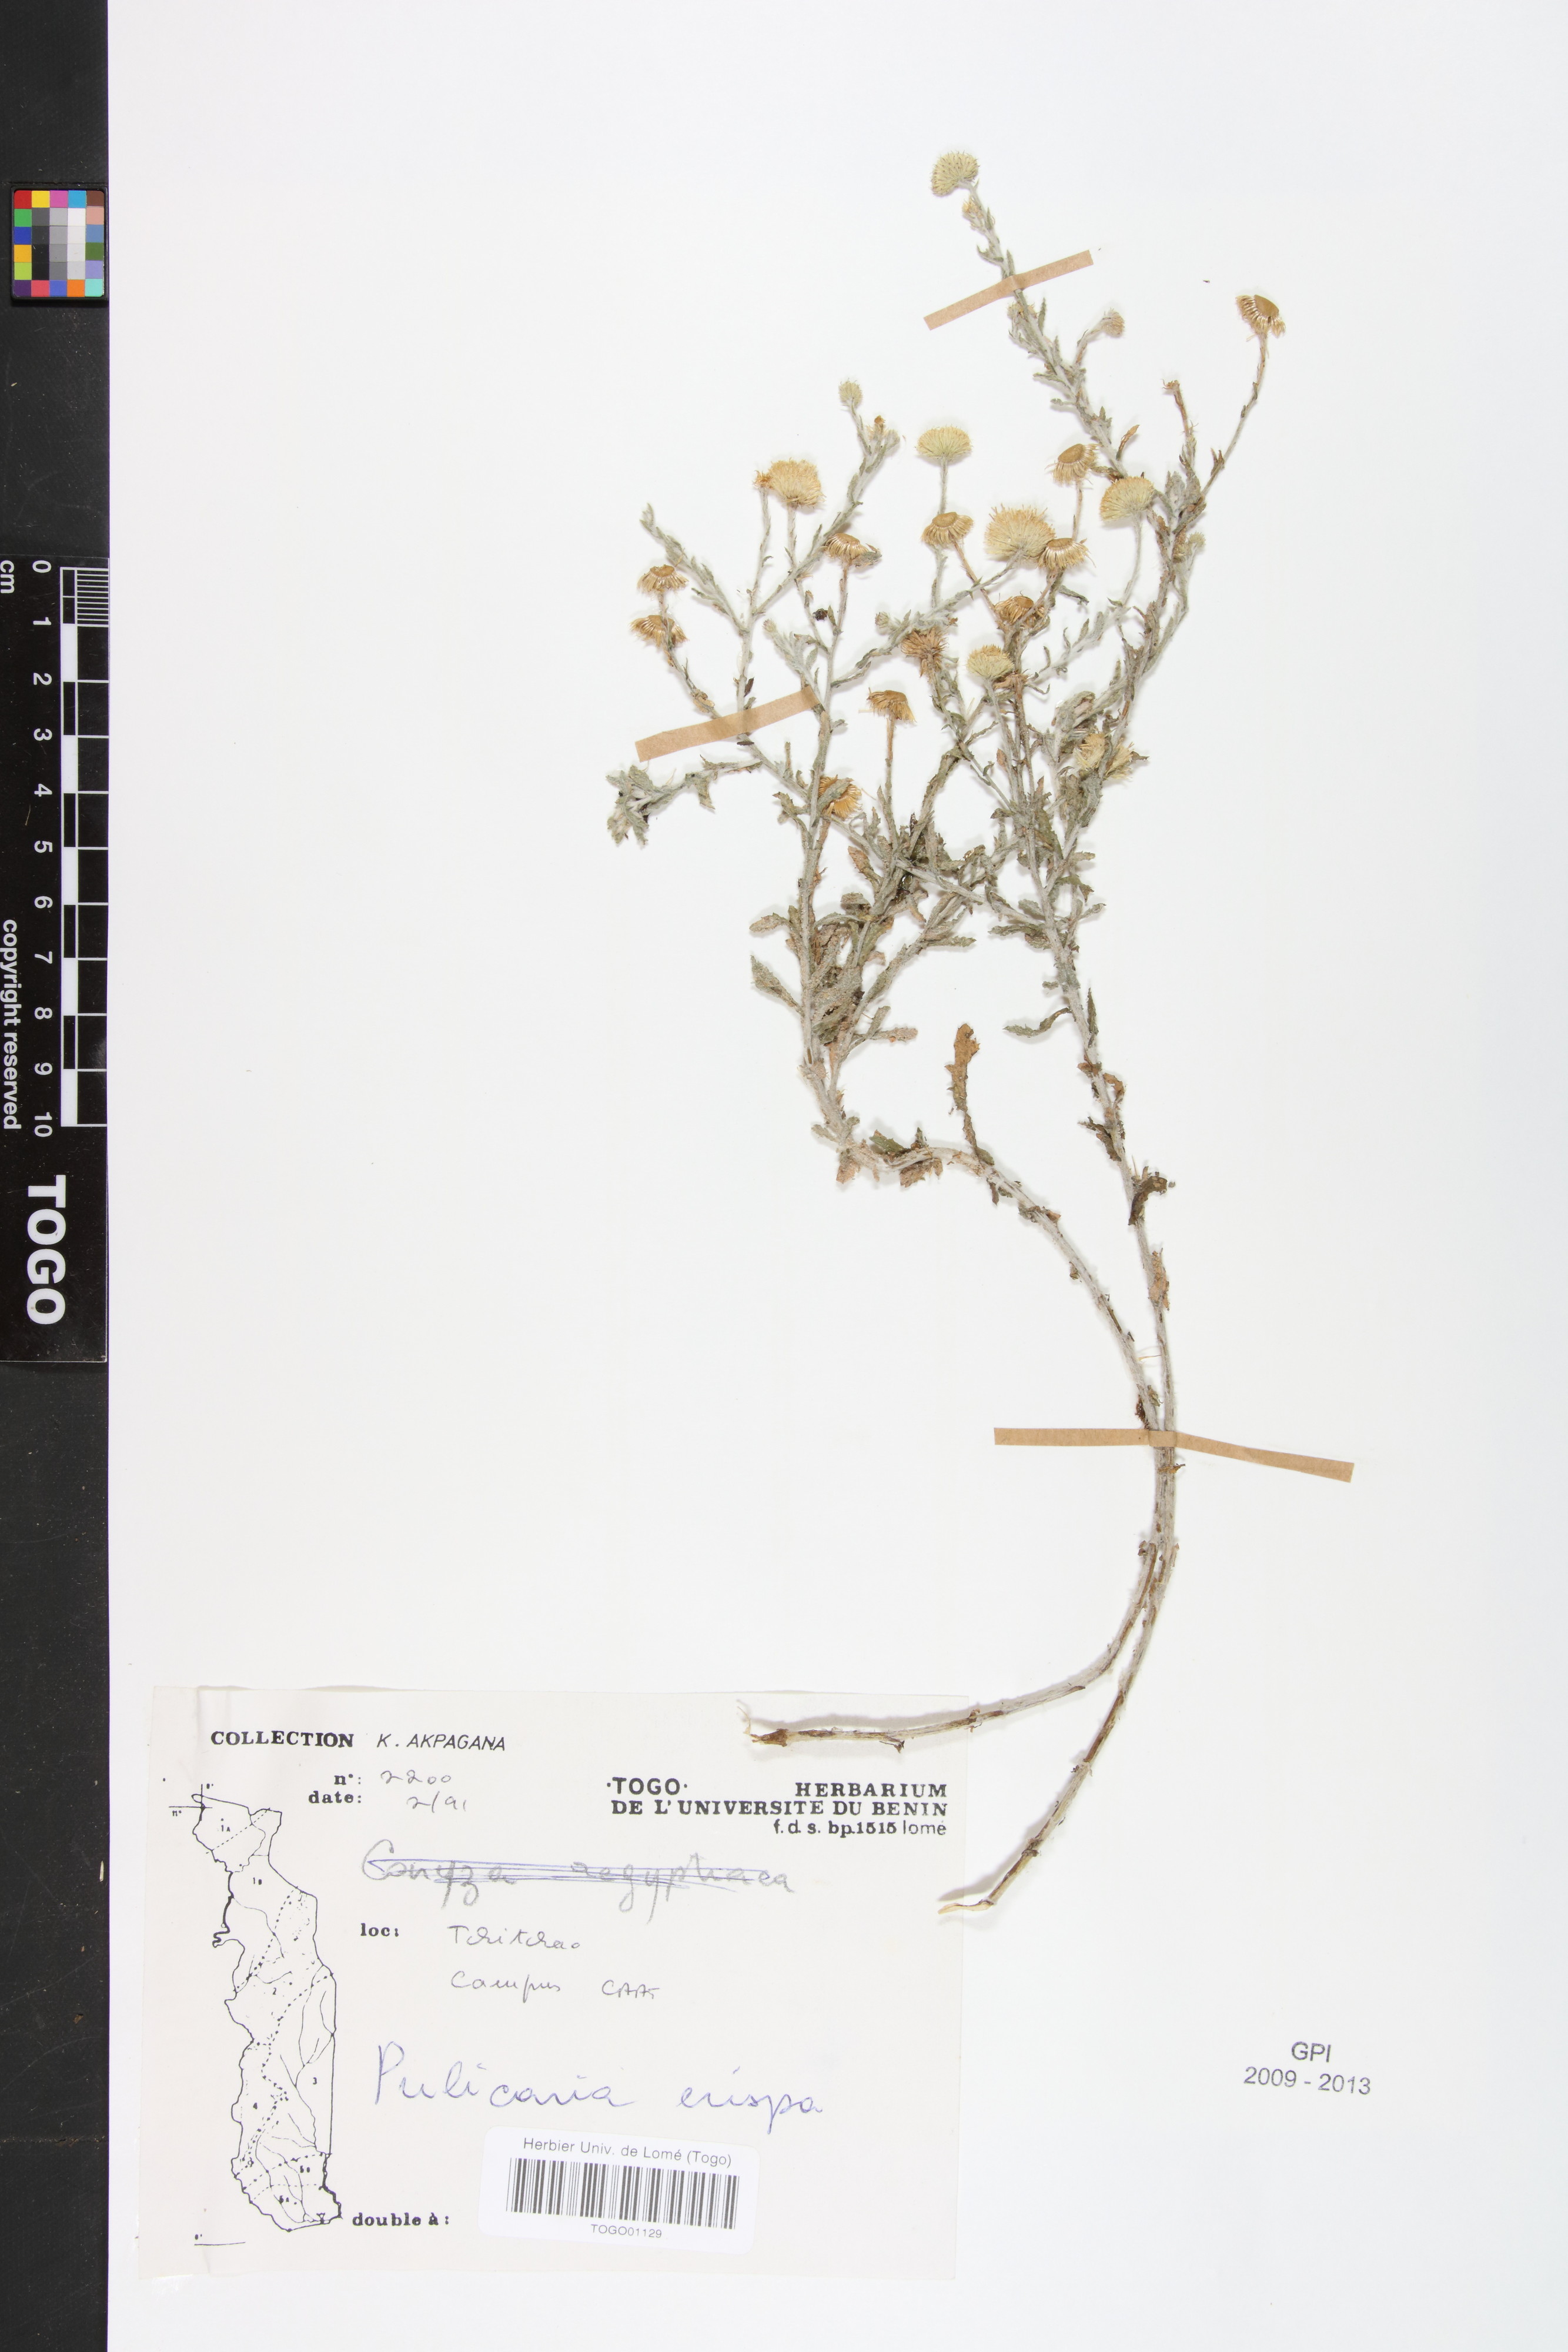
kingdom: Plantae
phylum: Tracheophyta
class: Magnoliopsida
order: Asterales
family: Asteraceae
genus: Pulicaria
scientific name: Pulicaria undulata
